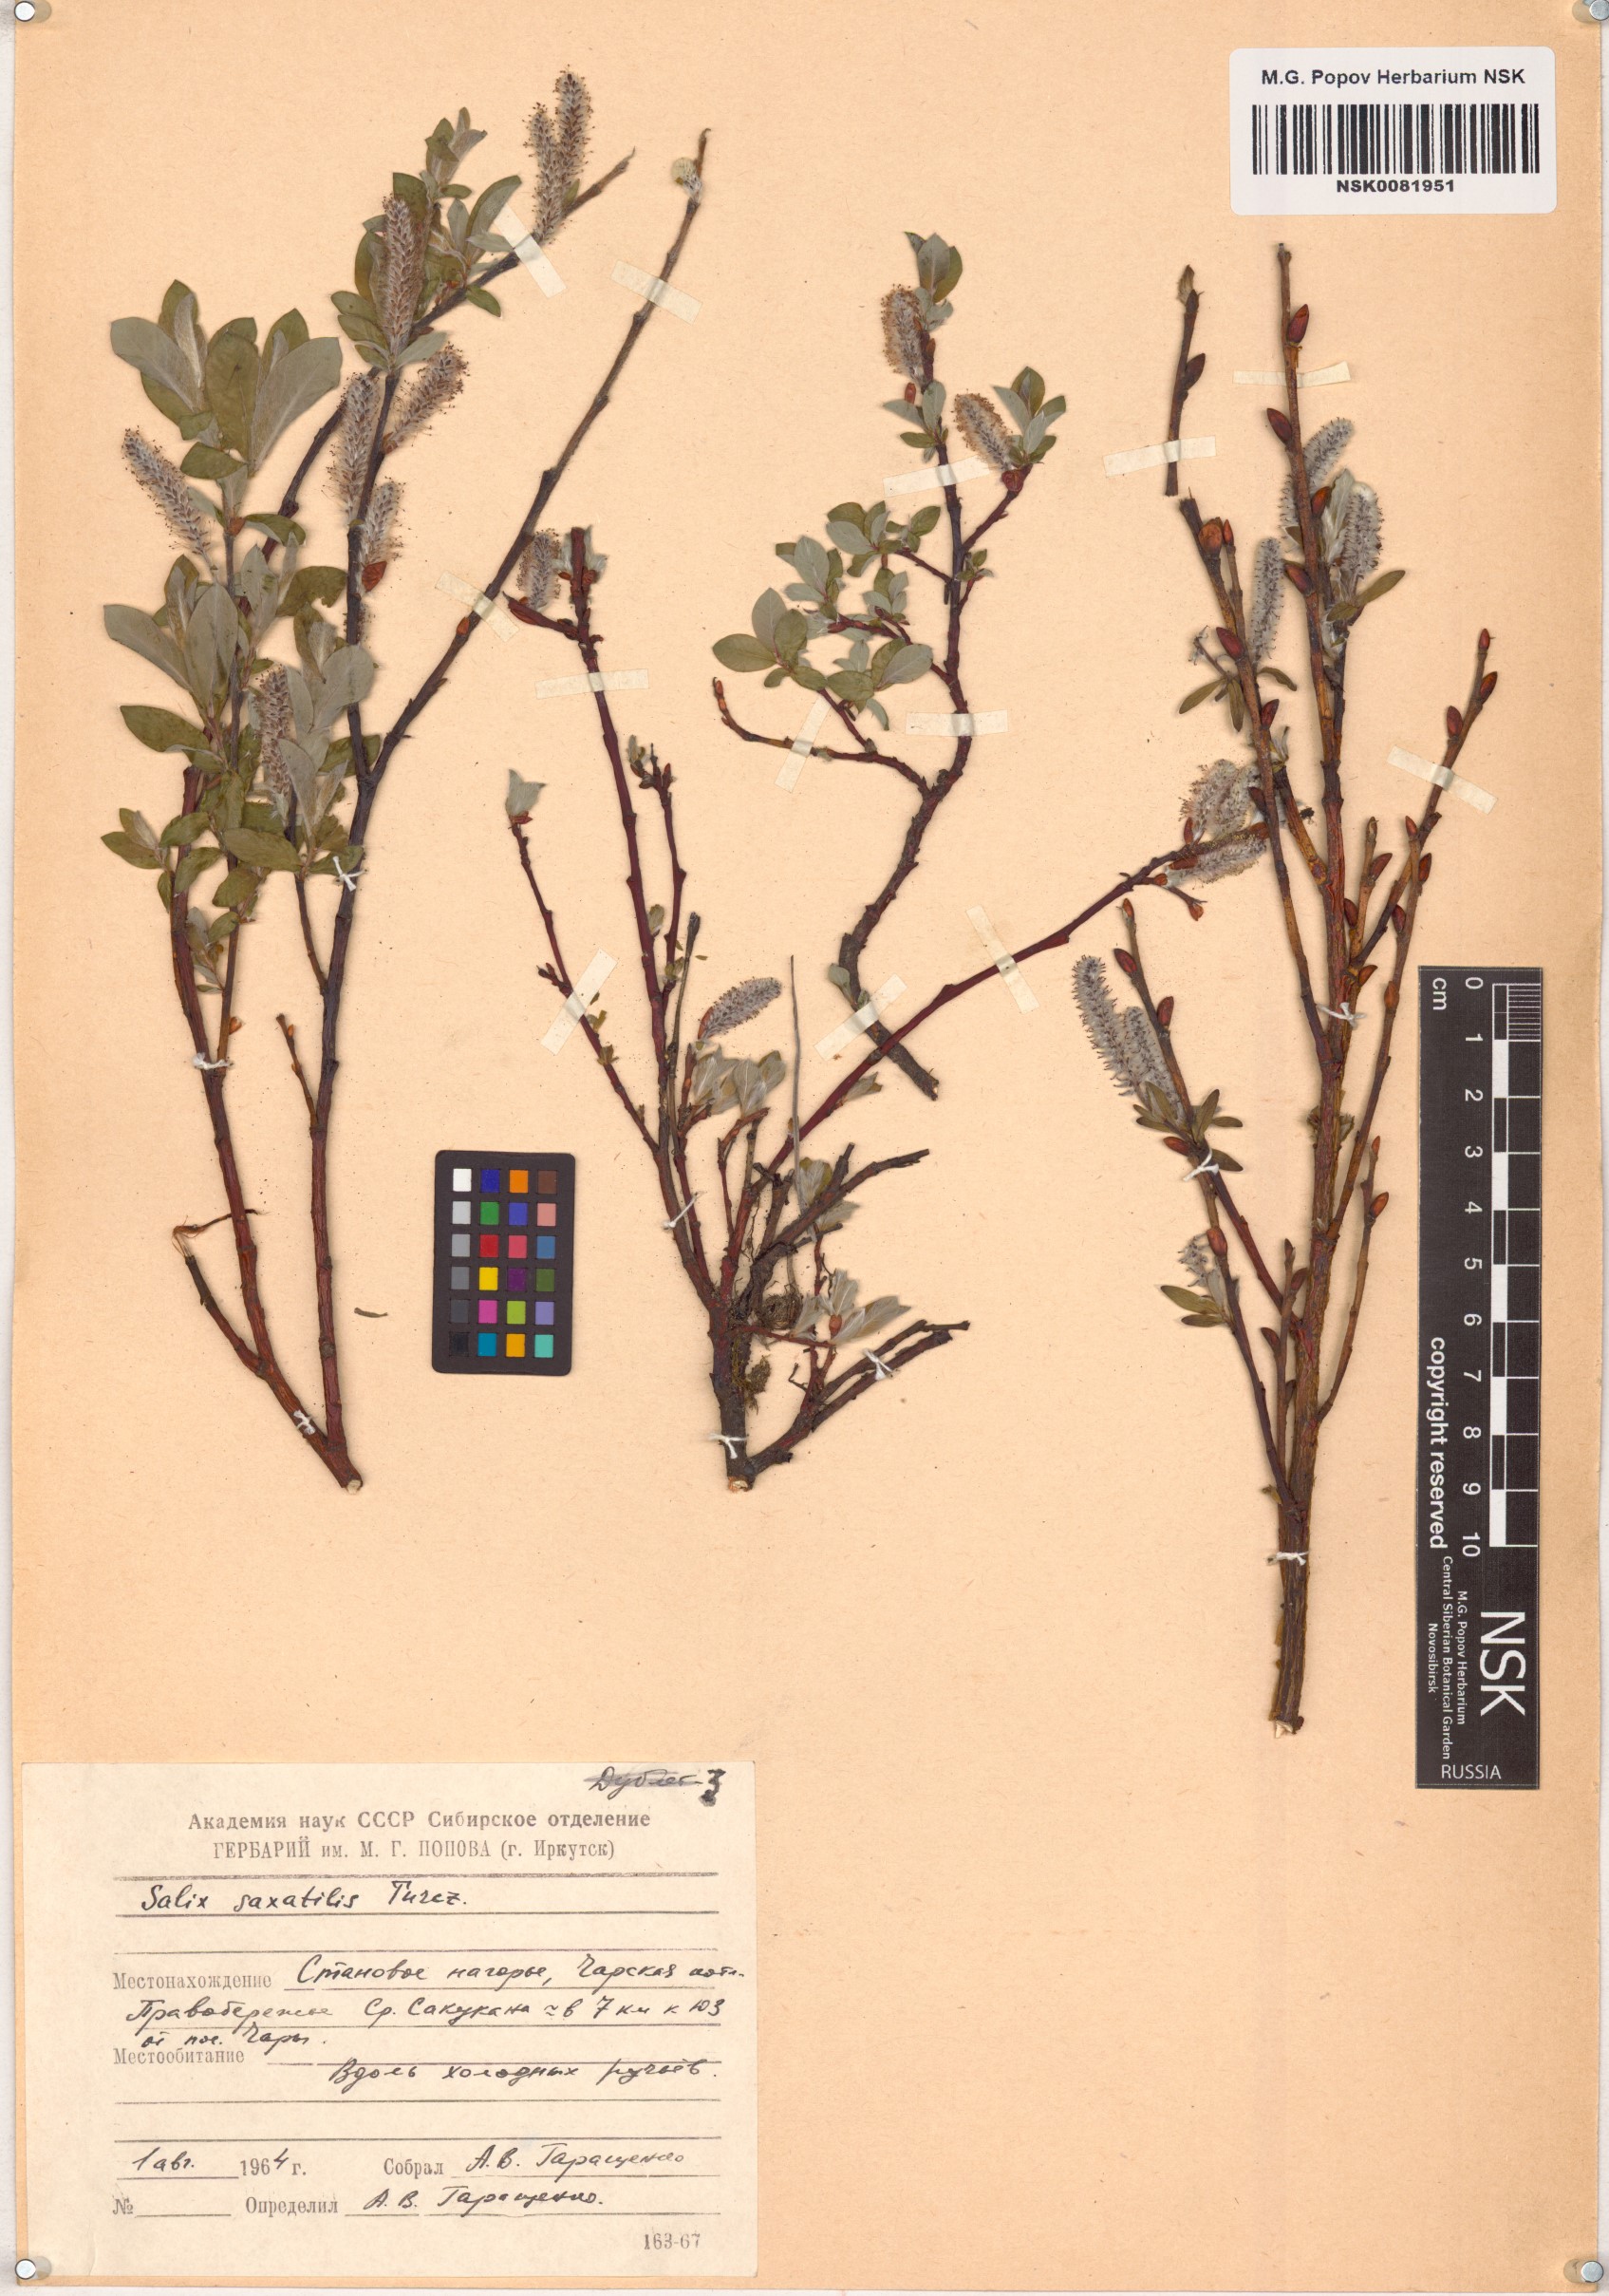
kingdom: Plantae
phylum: Tracheophyta
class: Magnoliopsida
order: Malpighiales
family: Salicaceae
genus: Salix
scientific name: Salix saxatilis
